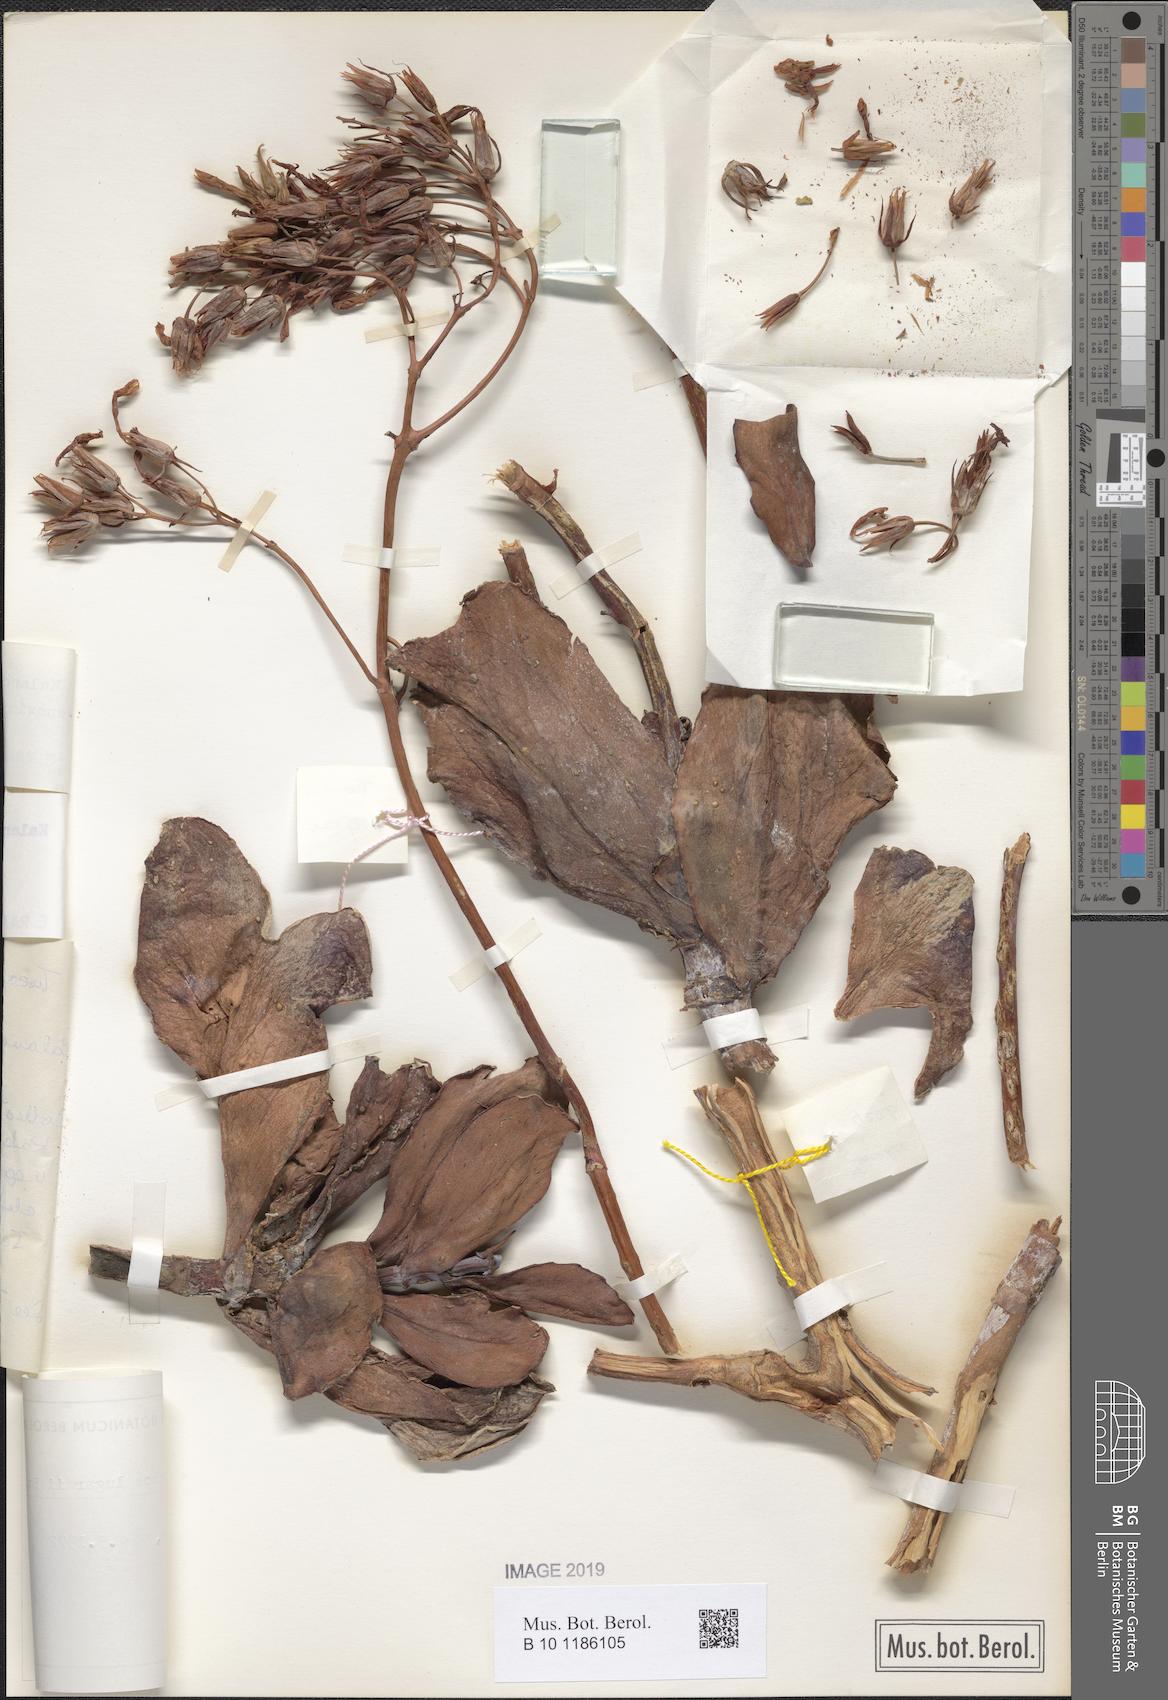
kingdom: Plantae
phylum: Tracheophyta
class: Magnoliopsida
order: Saxifragales
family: Crassulaceae
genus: Kalanchoe
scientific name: Kalanchoe marmorata
